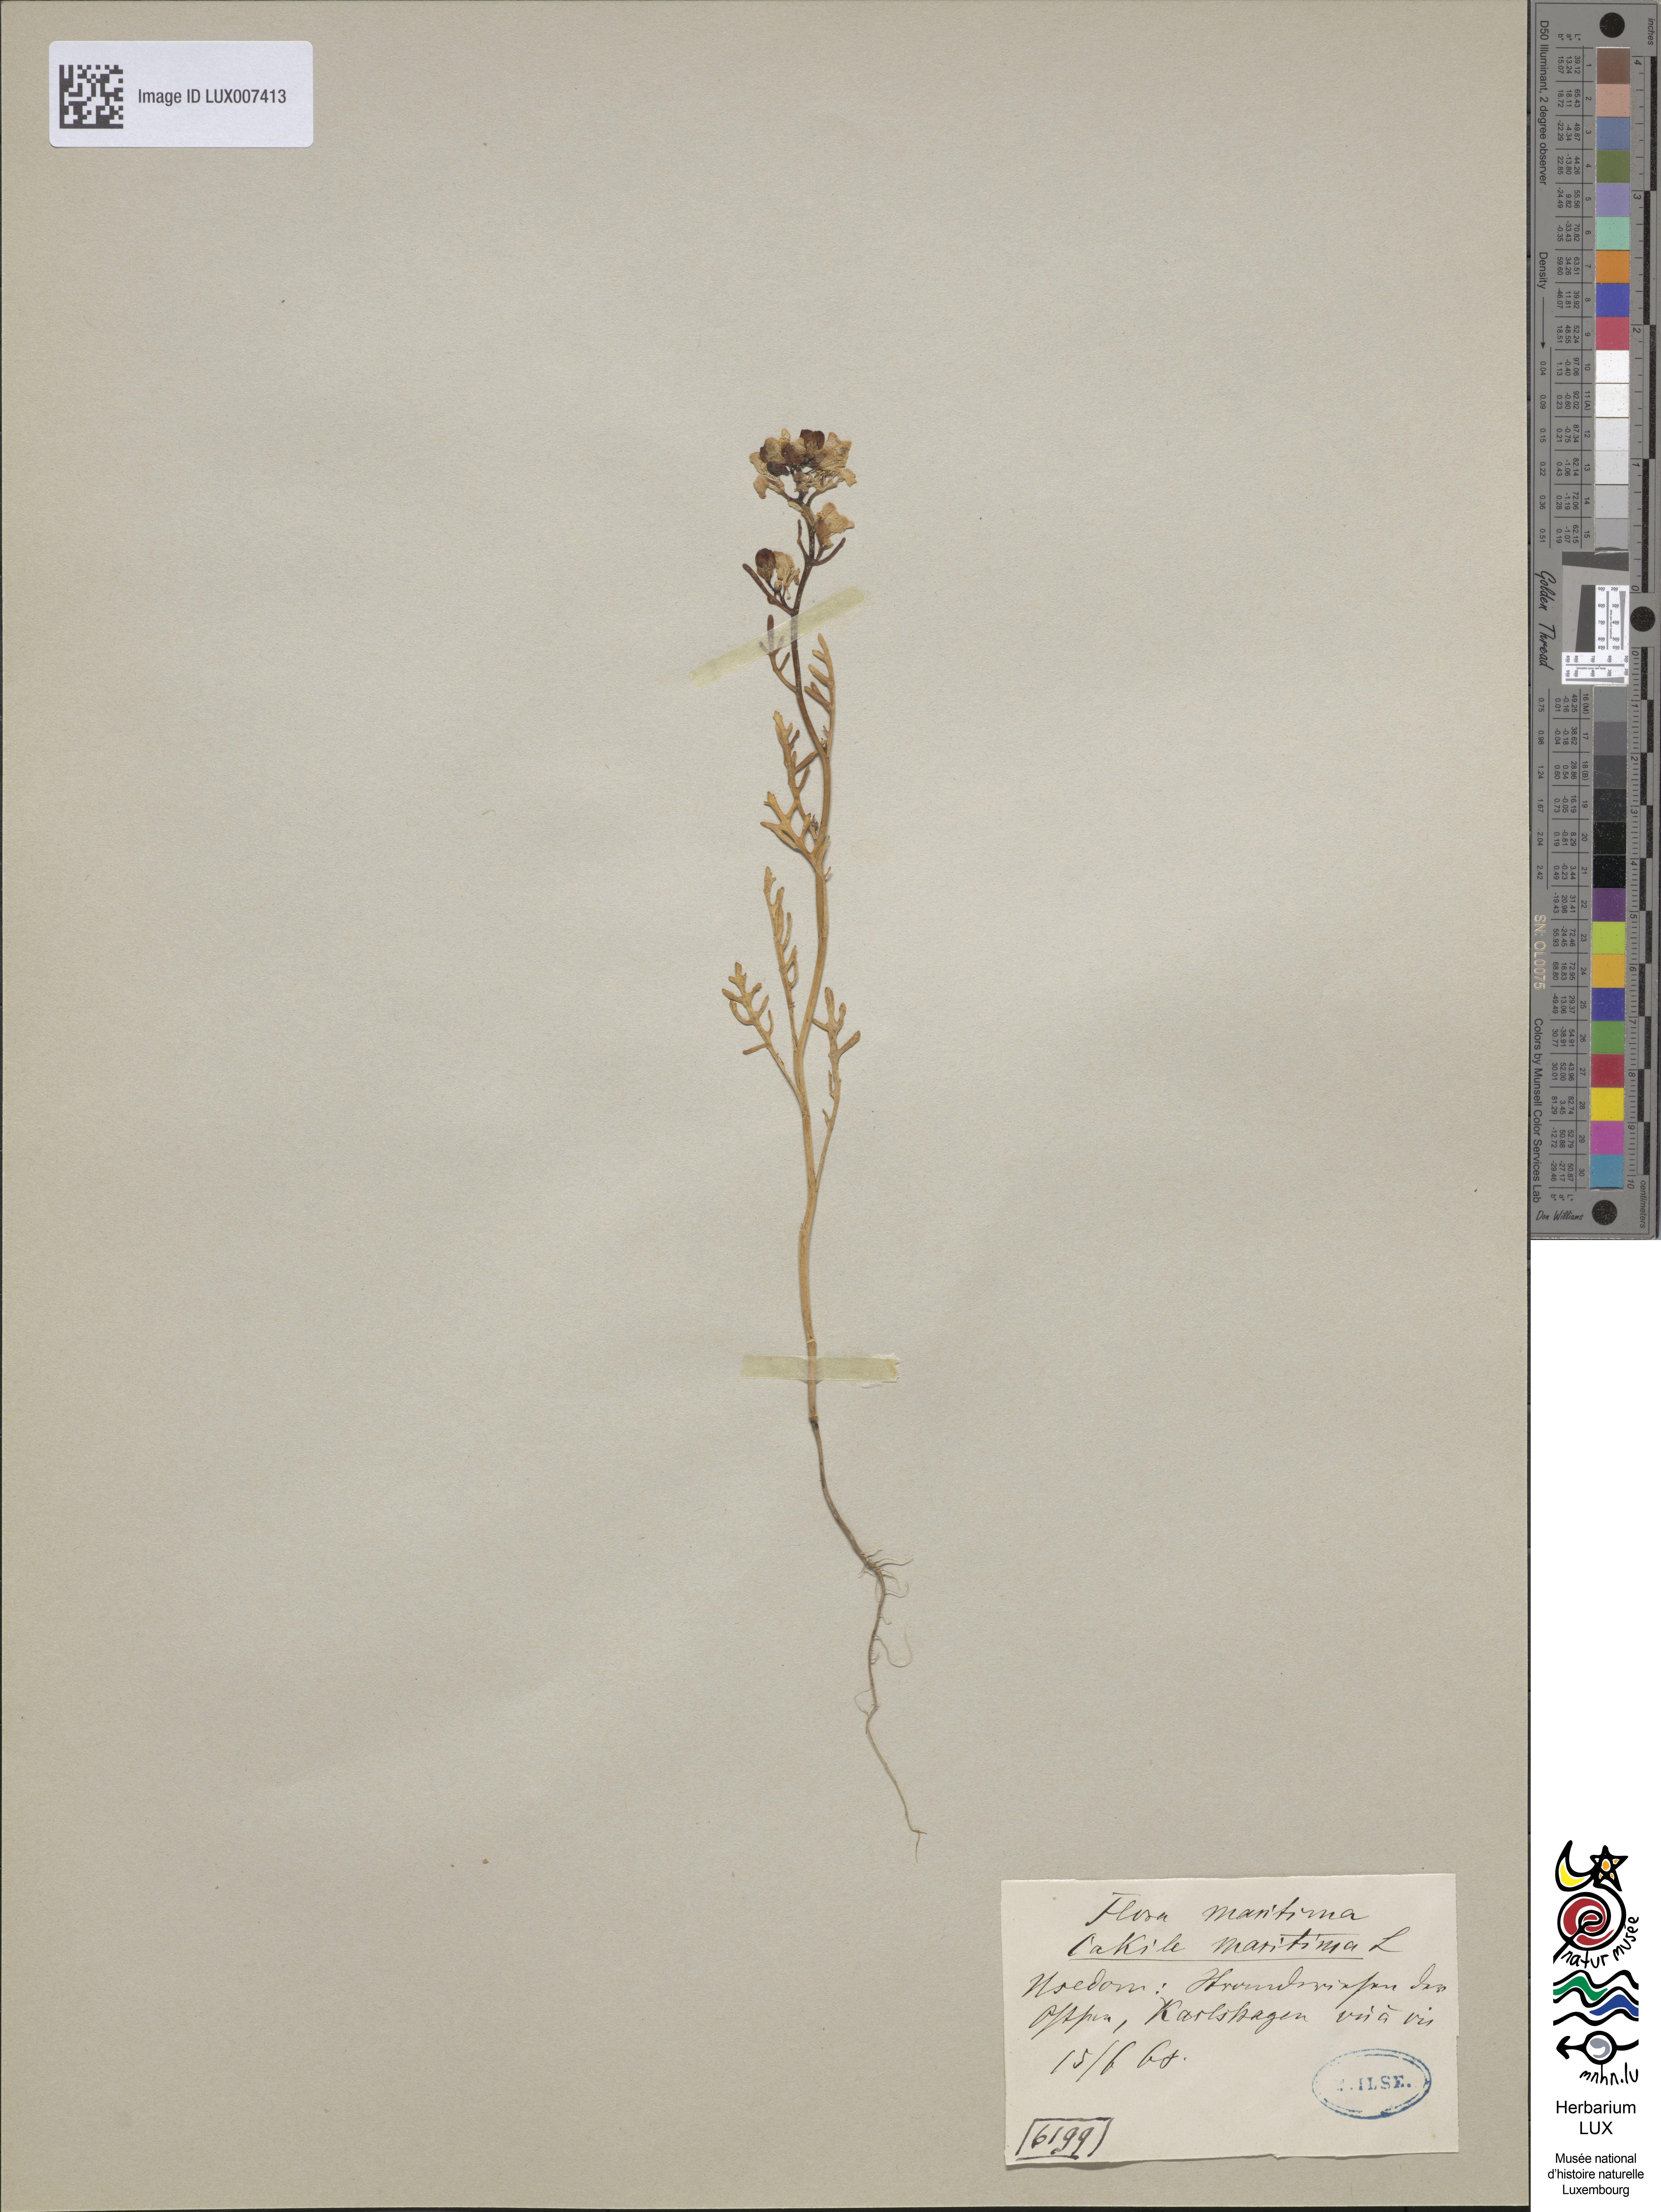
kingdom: Plantae
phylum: Tracheophyta
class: Magnoliopsida
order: Brassicales
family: Brassicaceae
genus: Cakile
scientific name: Cakile maritima
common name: Sea rocket
